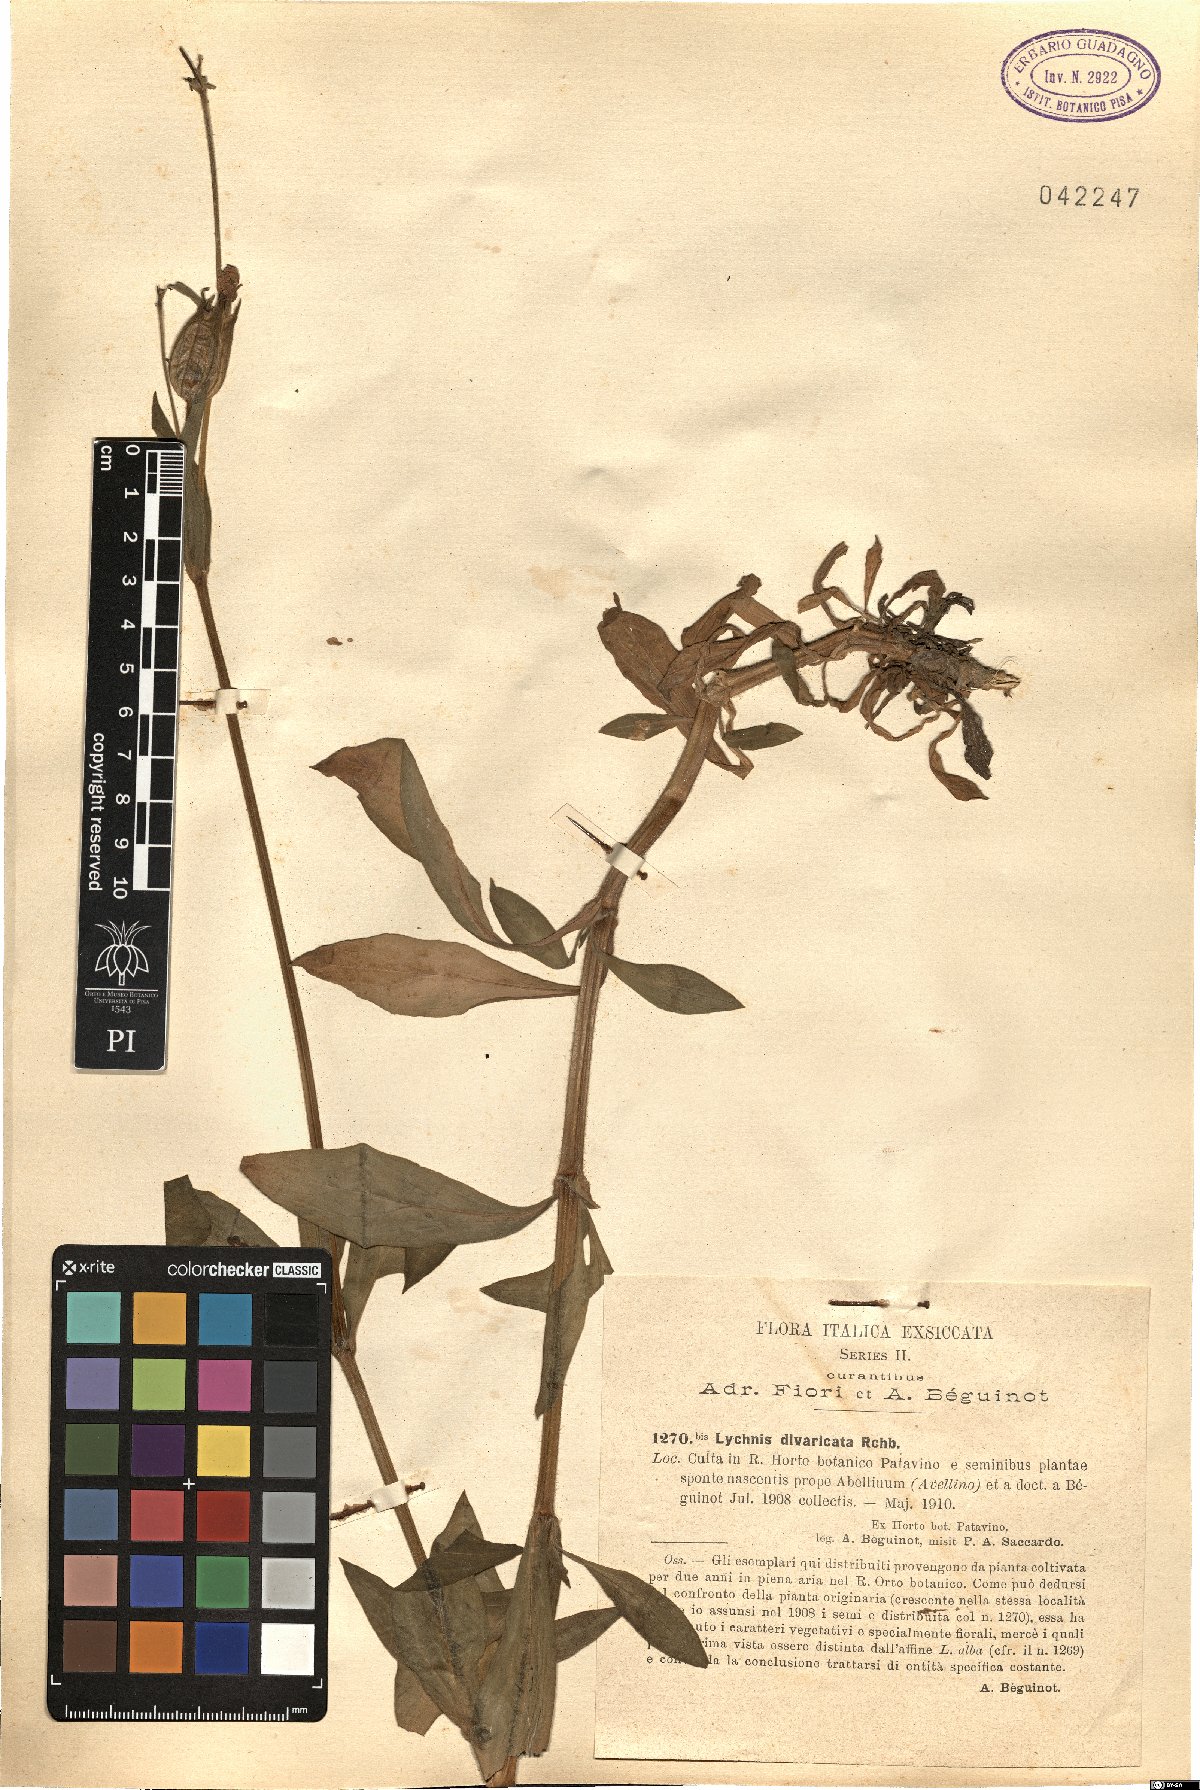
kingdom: Plantae
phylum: Tracheophyta
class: Magnoliopsida
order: Caryophyllales
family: Caryophyllaceae
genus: Silene
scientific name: Silene latifolia
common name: White campion
